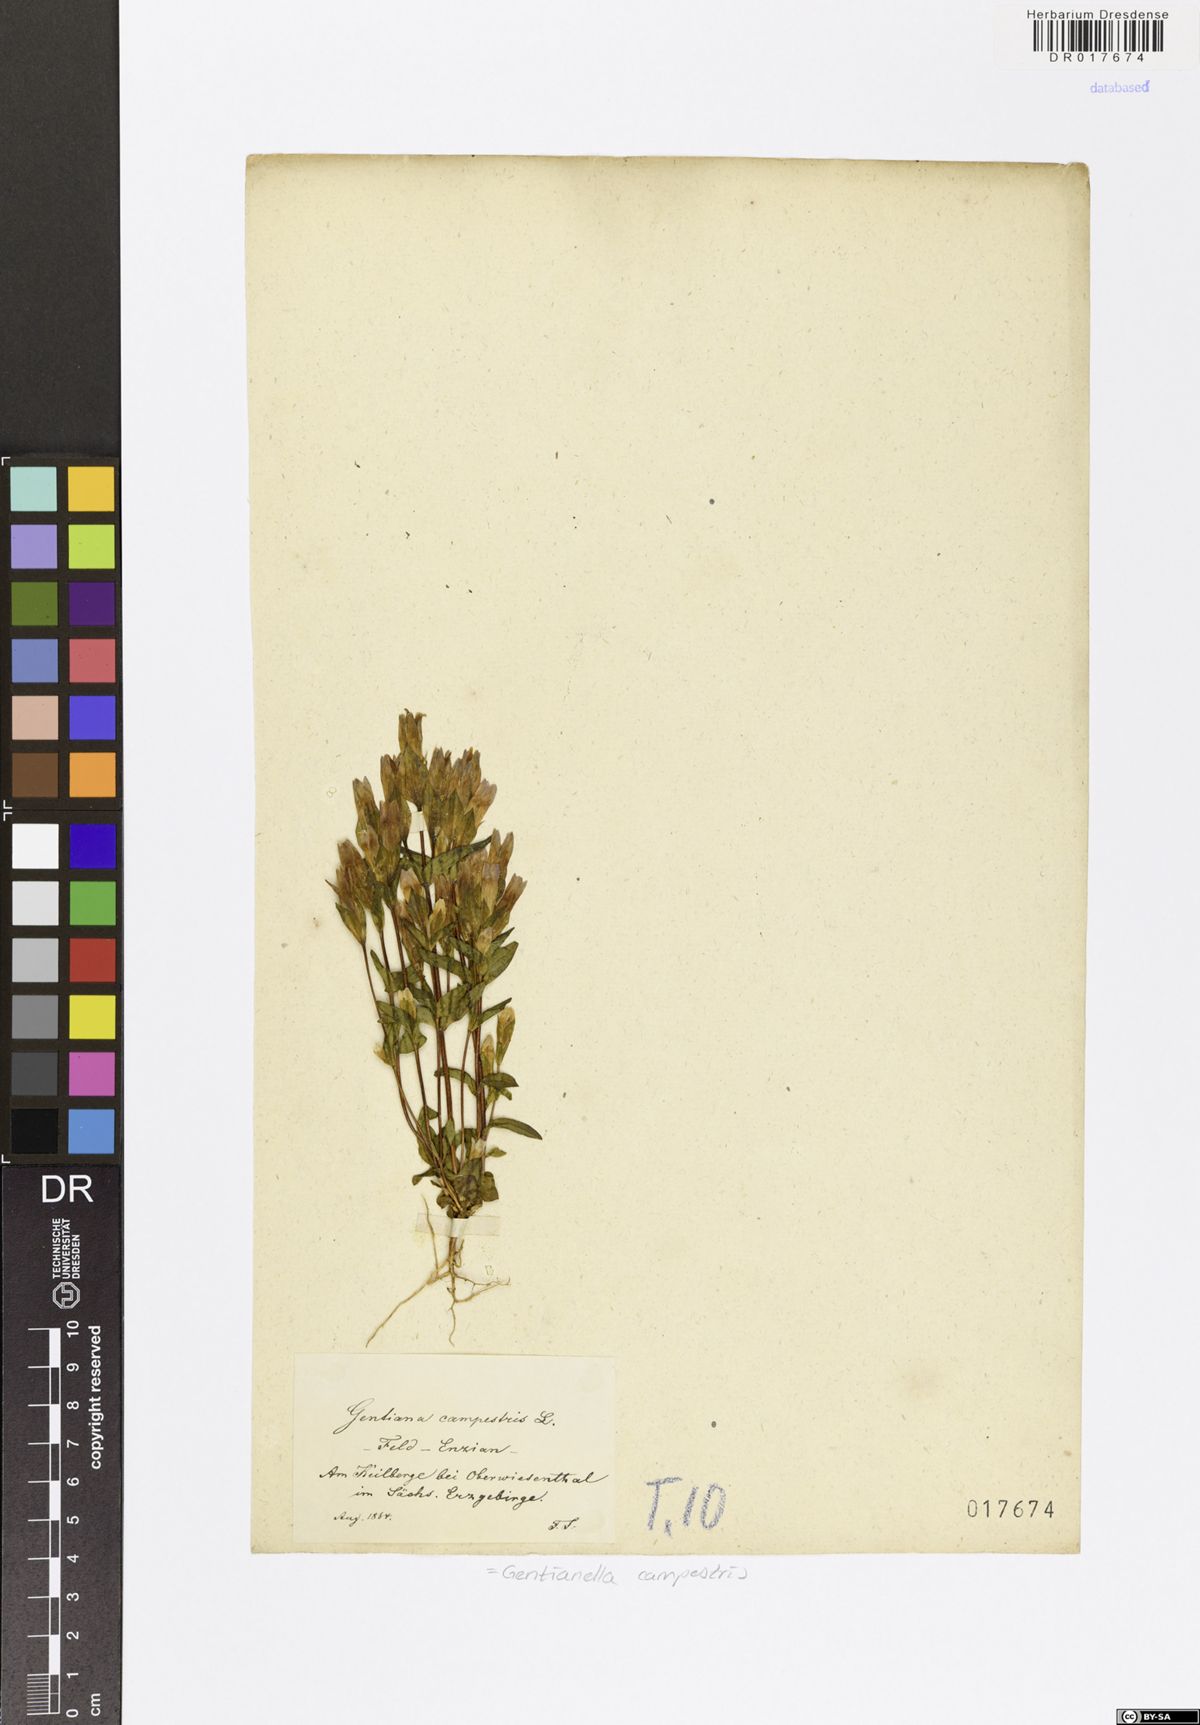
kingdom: Plantae
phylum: Tracheophyta
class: Magnoliopsida
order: Gentianales
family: Gentianaceae
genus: Gentianella
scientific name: Gentianella campestris
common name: Field gentian
